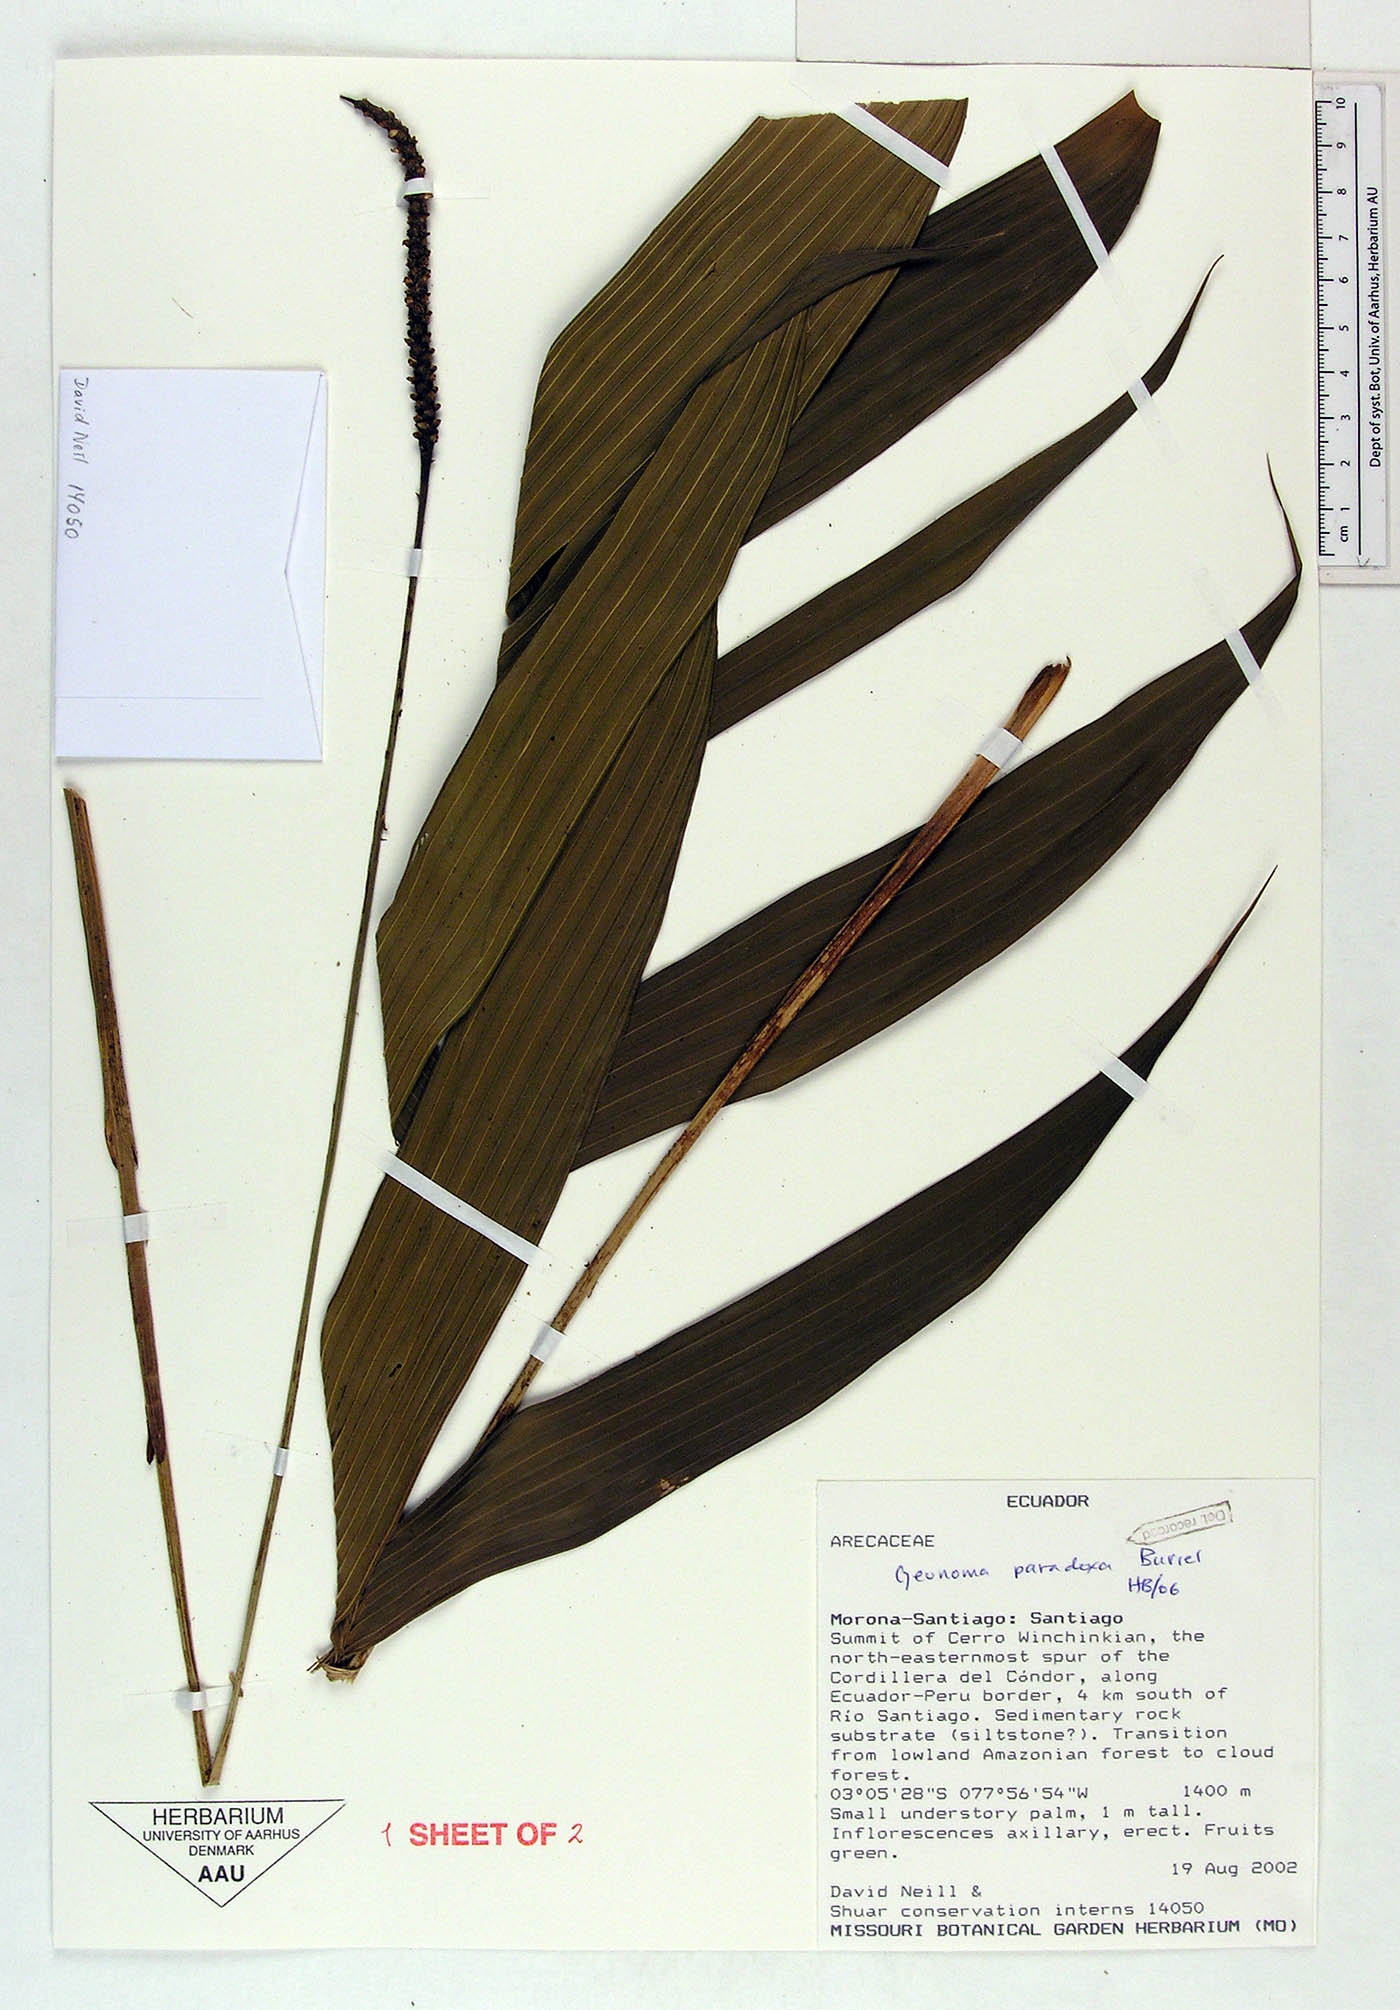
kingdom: Plantae
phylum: Tracheophyta
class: Liliopsida
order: Arecales
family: Arecaceae
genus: Geonoma
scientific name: Geonoma paradoxa
